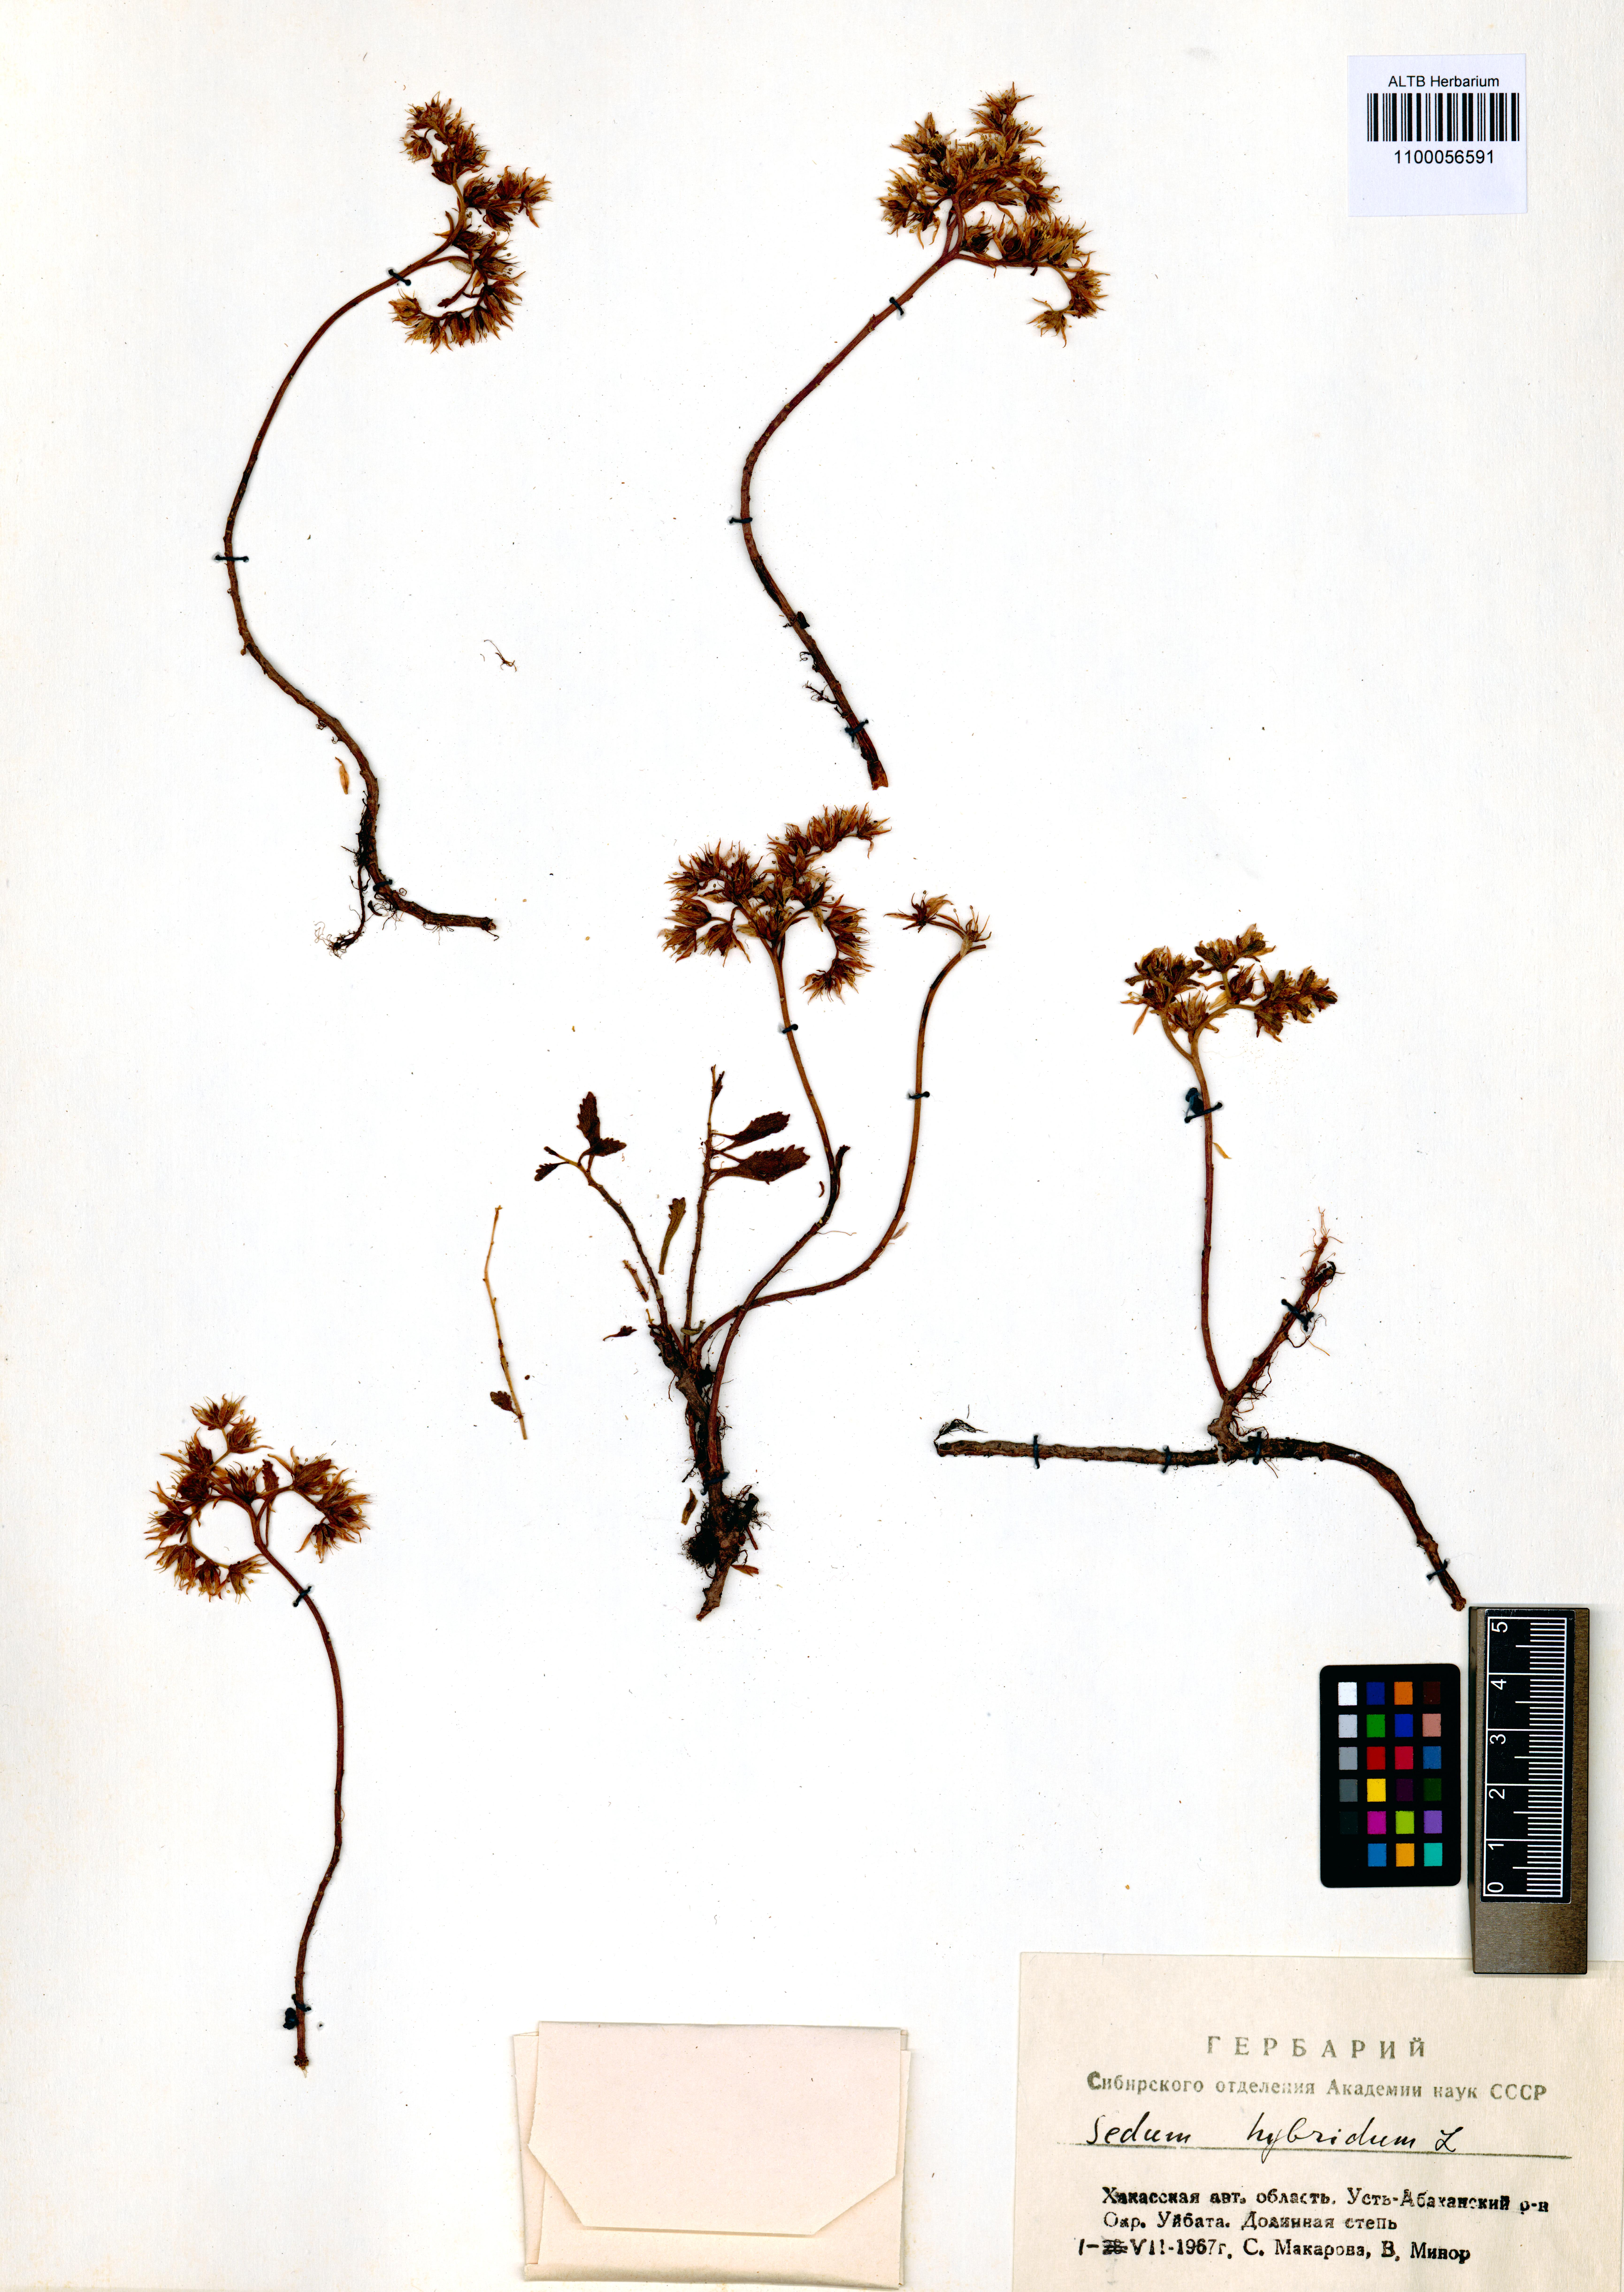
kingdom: Plantae
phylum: Tracheophyta
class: Magnoliopsida
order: Saxifragales
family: Crassulaceae
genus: Phedimus
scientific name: Phedimus hybridus
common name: Hybrid stonecrop
